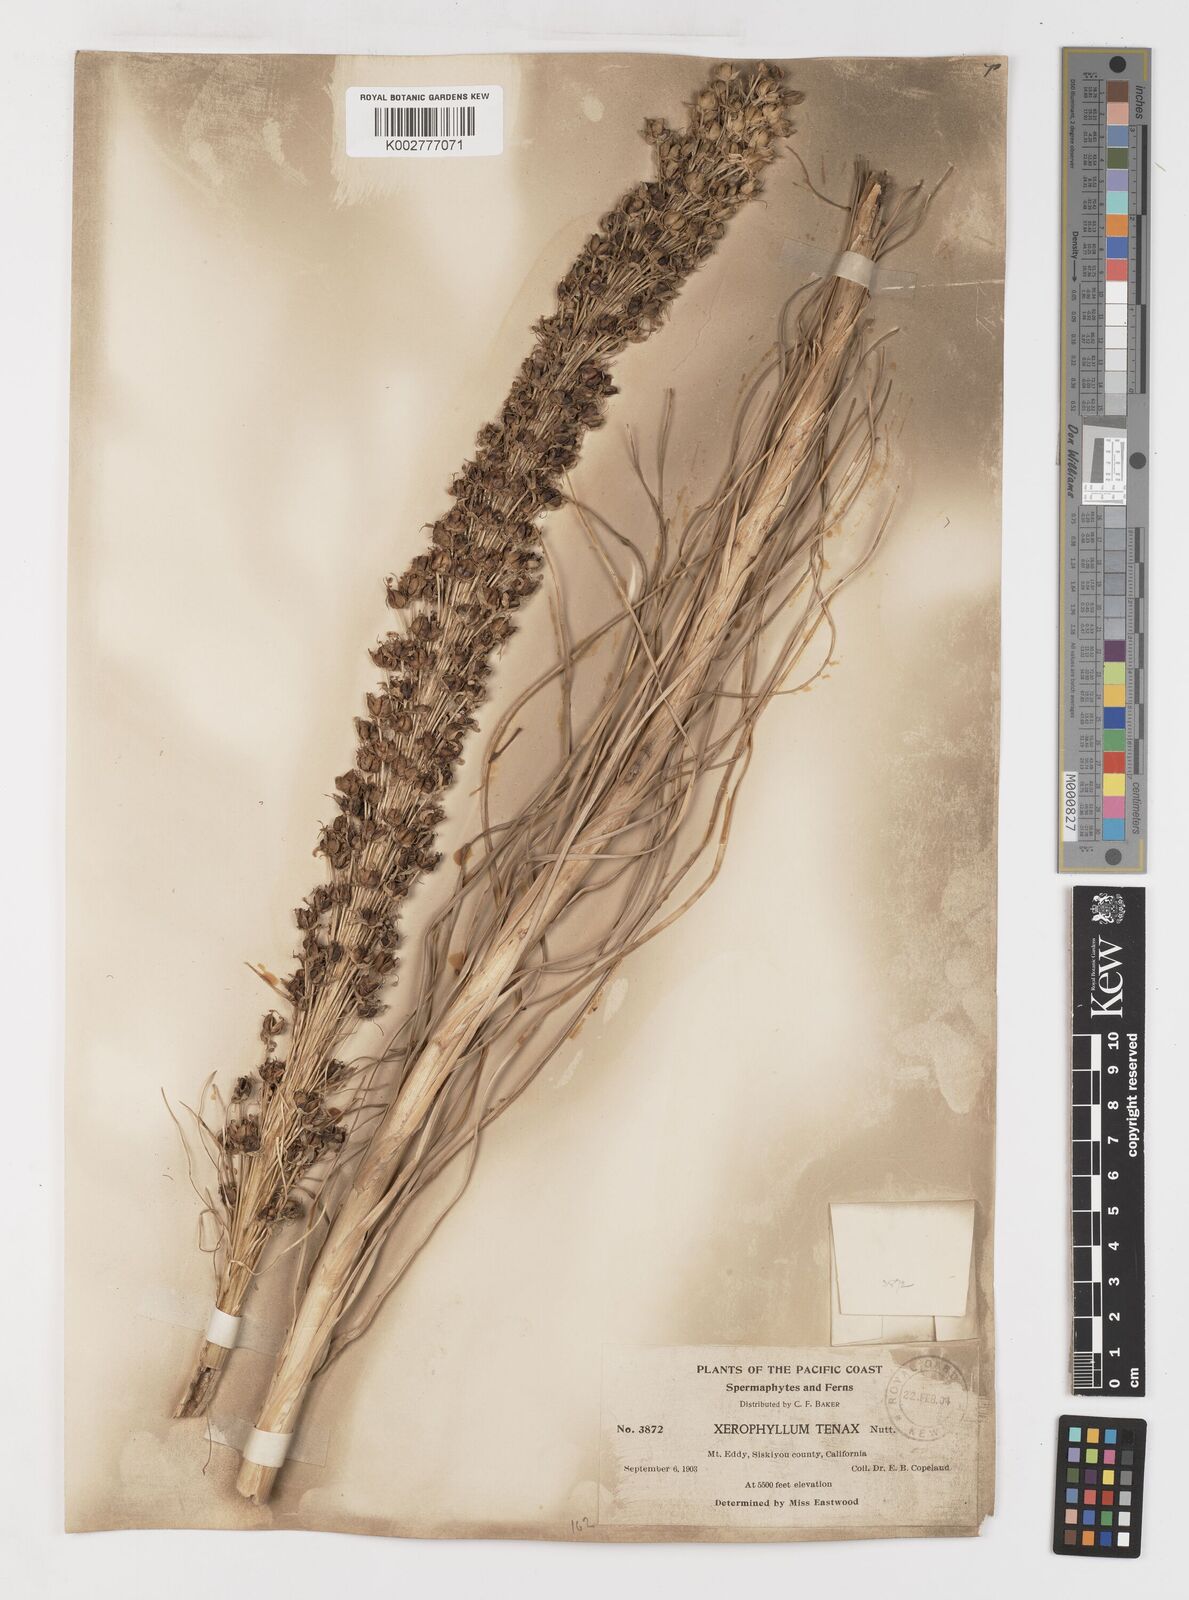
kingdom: Plantae
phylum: Tracheophyta
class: Liliopsida
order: Liliales
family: Melanthiaceae
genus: Xerophyllum
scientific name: Xerophyllum tenax
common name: Bear-grass
